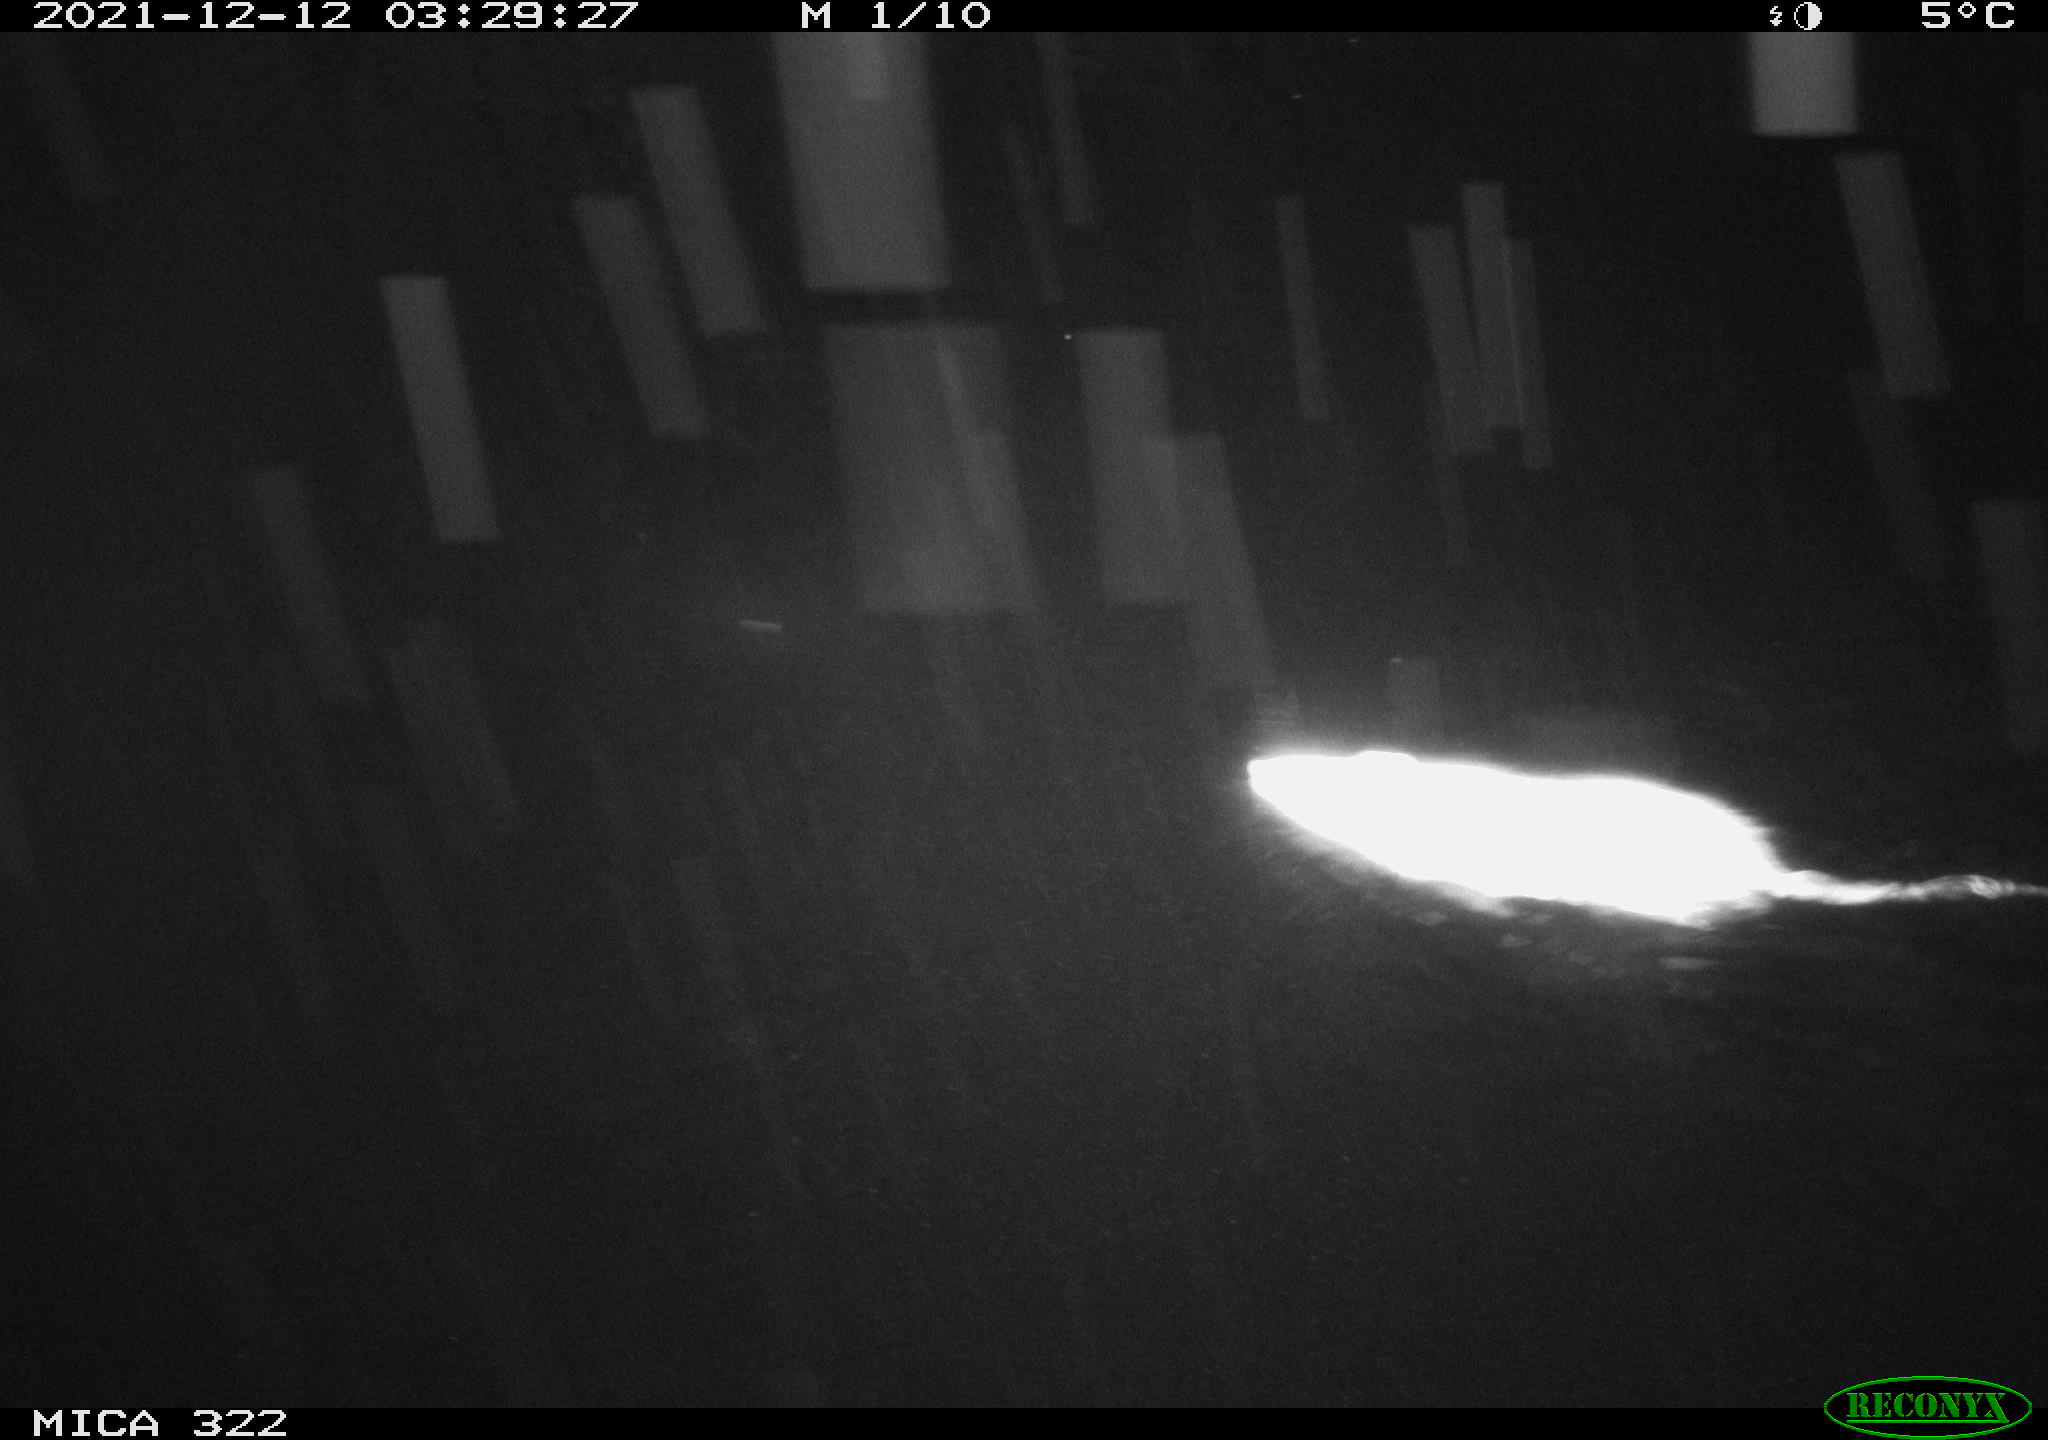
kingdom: Animalia
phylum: Chordata
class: Mammalia
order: Rodentia
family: Muridae
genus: Rattus
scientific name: Rattus norvegicus
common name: Brown rat
